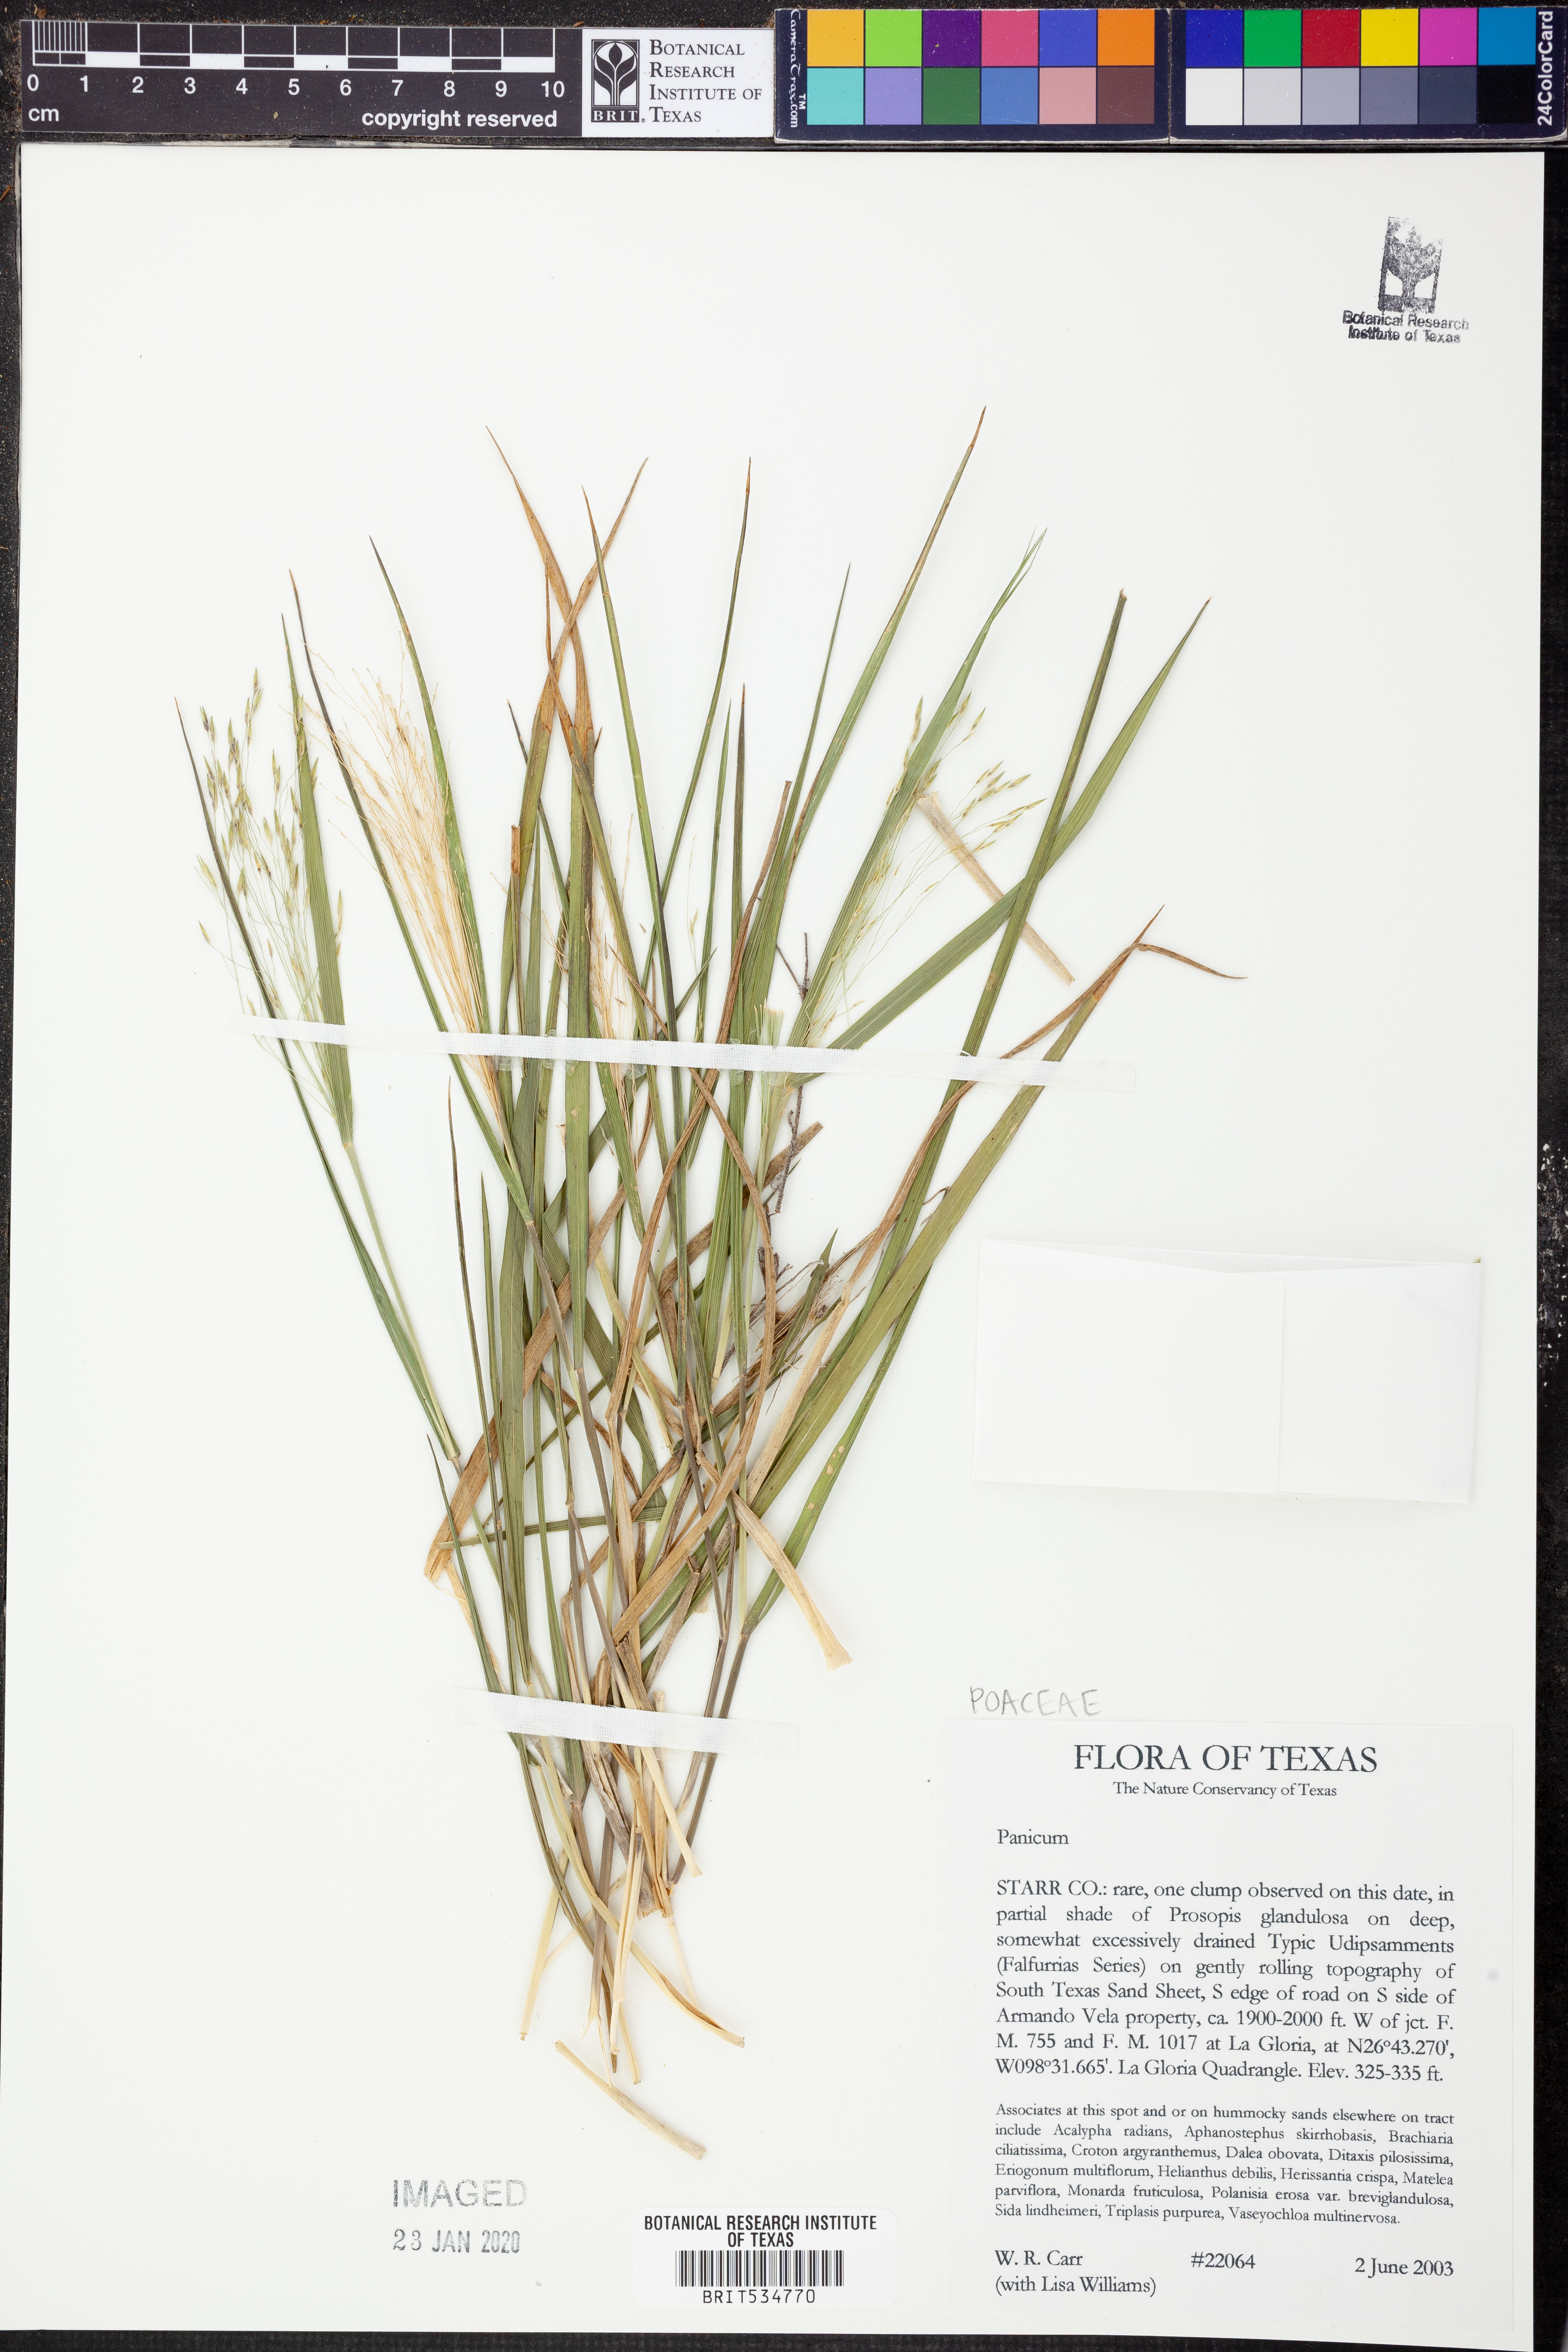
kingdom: Plantae
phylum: Tracheophyta
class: Liliopsida
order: Poales
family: Poaceae
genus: Panicum
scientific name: Panicum
